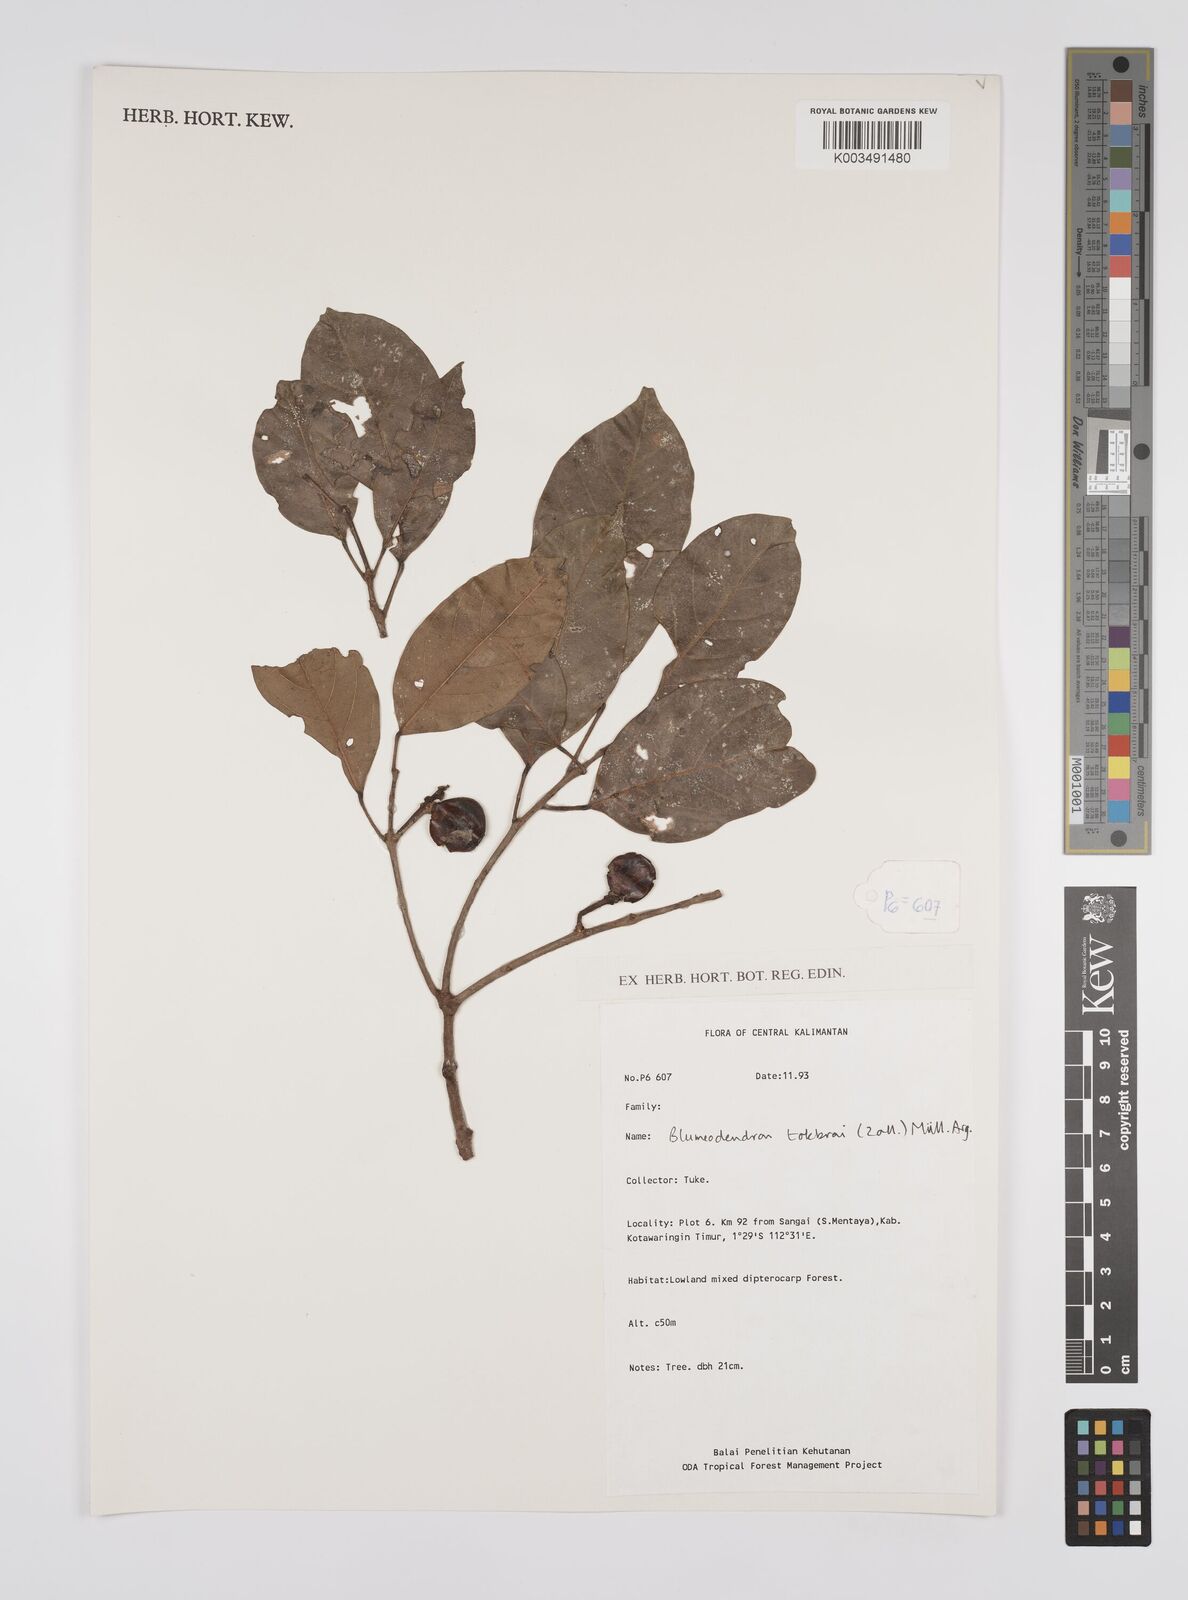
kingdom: Plantae
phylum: Tracheophyta
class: Magnoliopsida
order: Malpighiales
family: Euphorbiaceae
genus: Blumeodendron
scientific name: Blumeodendron tokbrai
